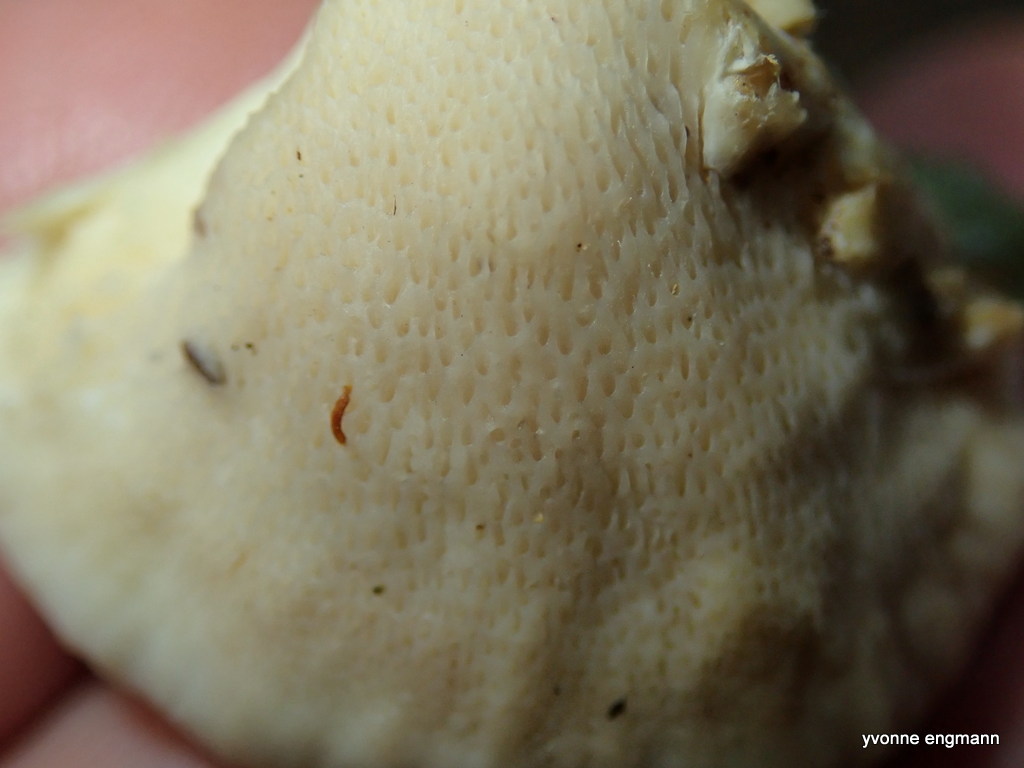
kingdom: Fungi
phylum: Basidiomycota
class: Agaricomycetes
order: Polyporales
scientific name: Polyporales
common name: poresvampordenen
